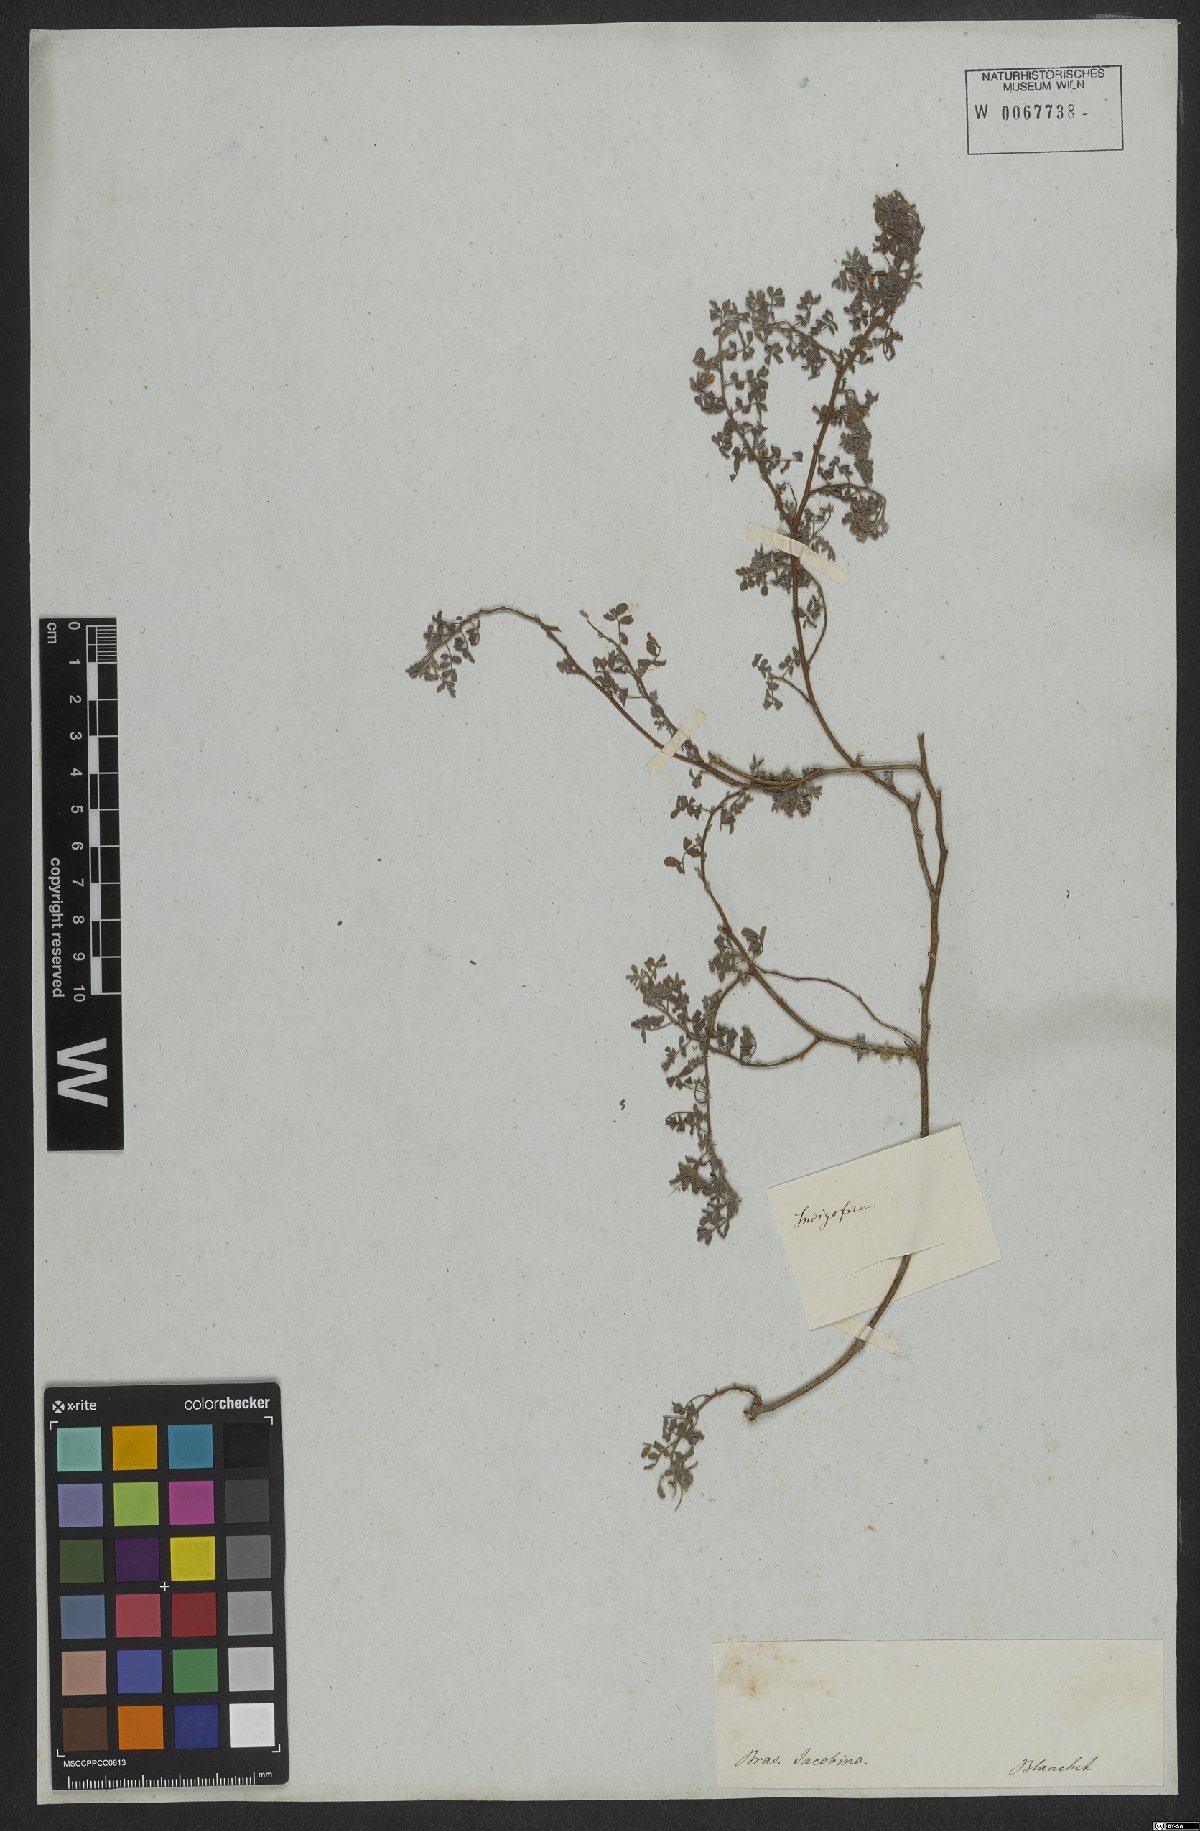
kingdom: Plantae
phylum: Tracheophyta
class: Magnoliopsida
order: Fabales
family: Fabaceae
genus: Indigofera
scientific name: Indigofera microcarpa
